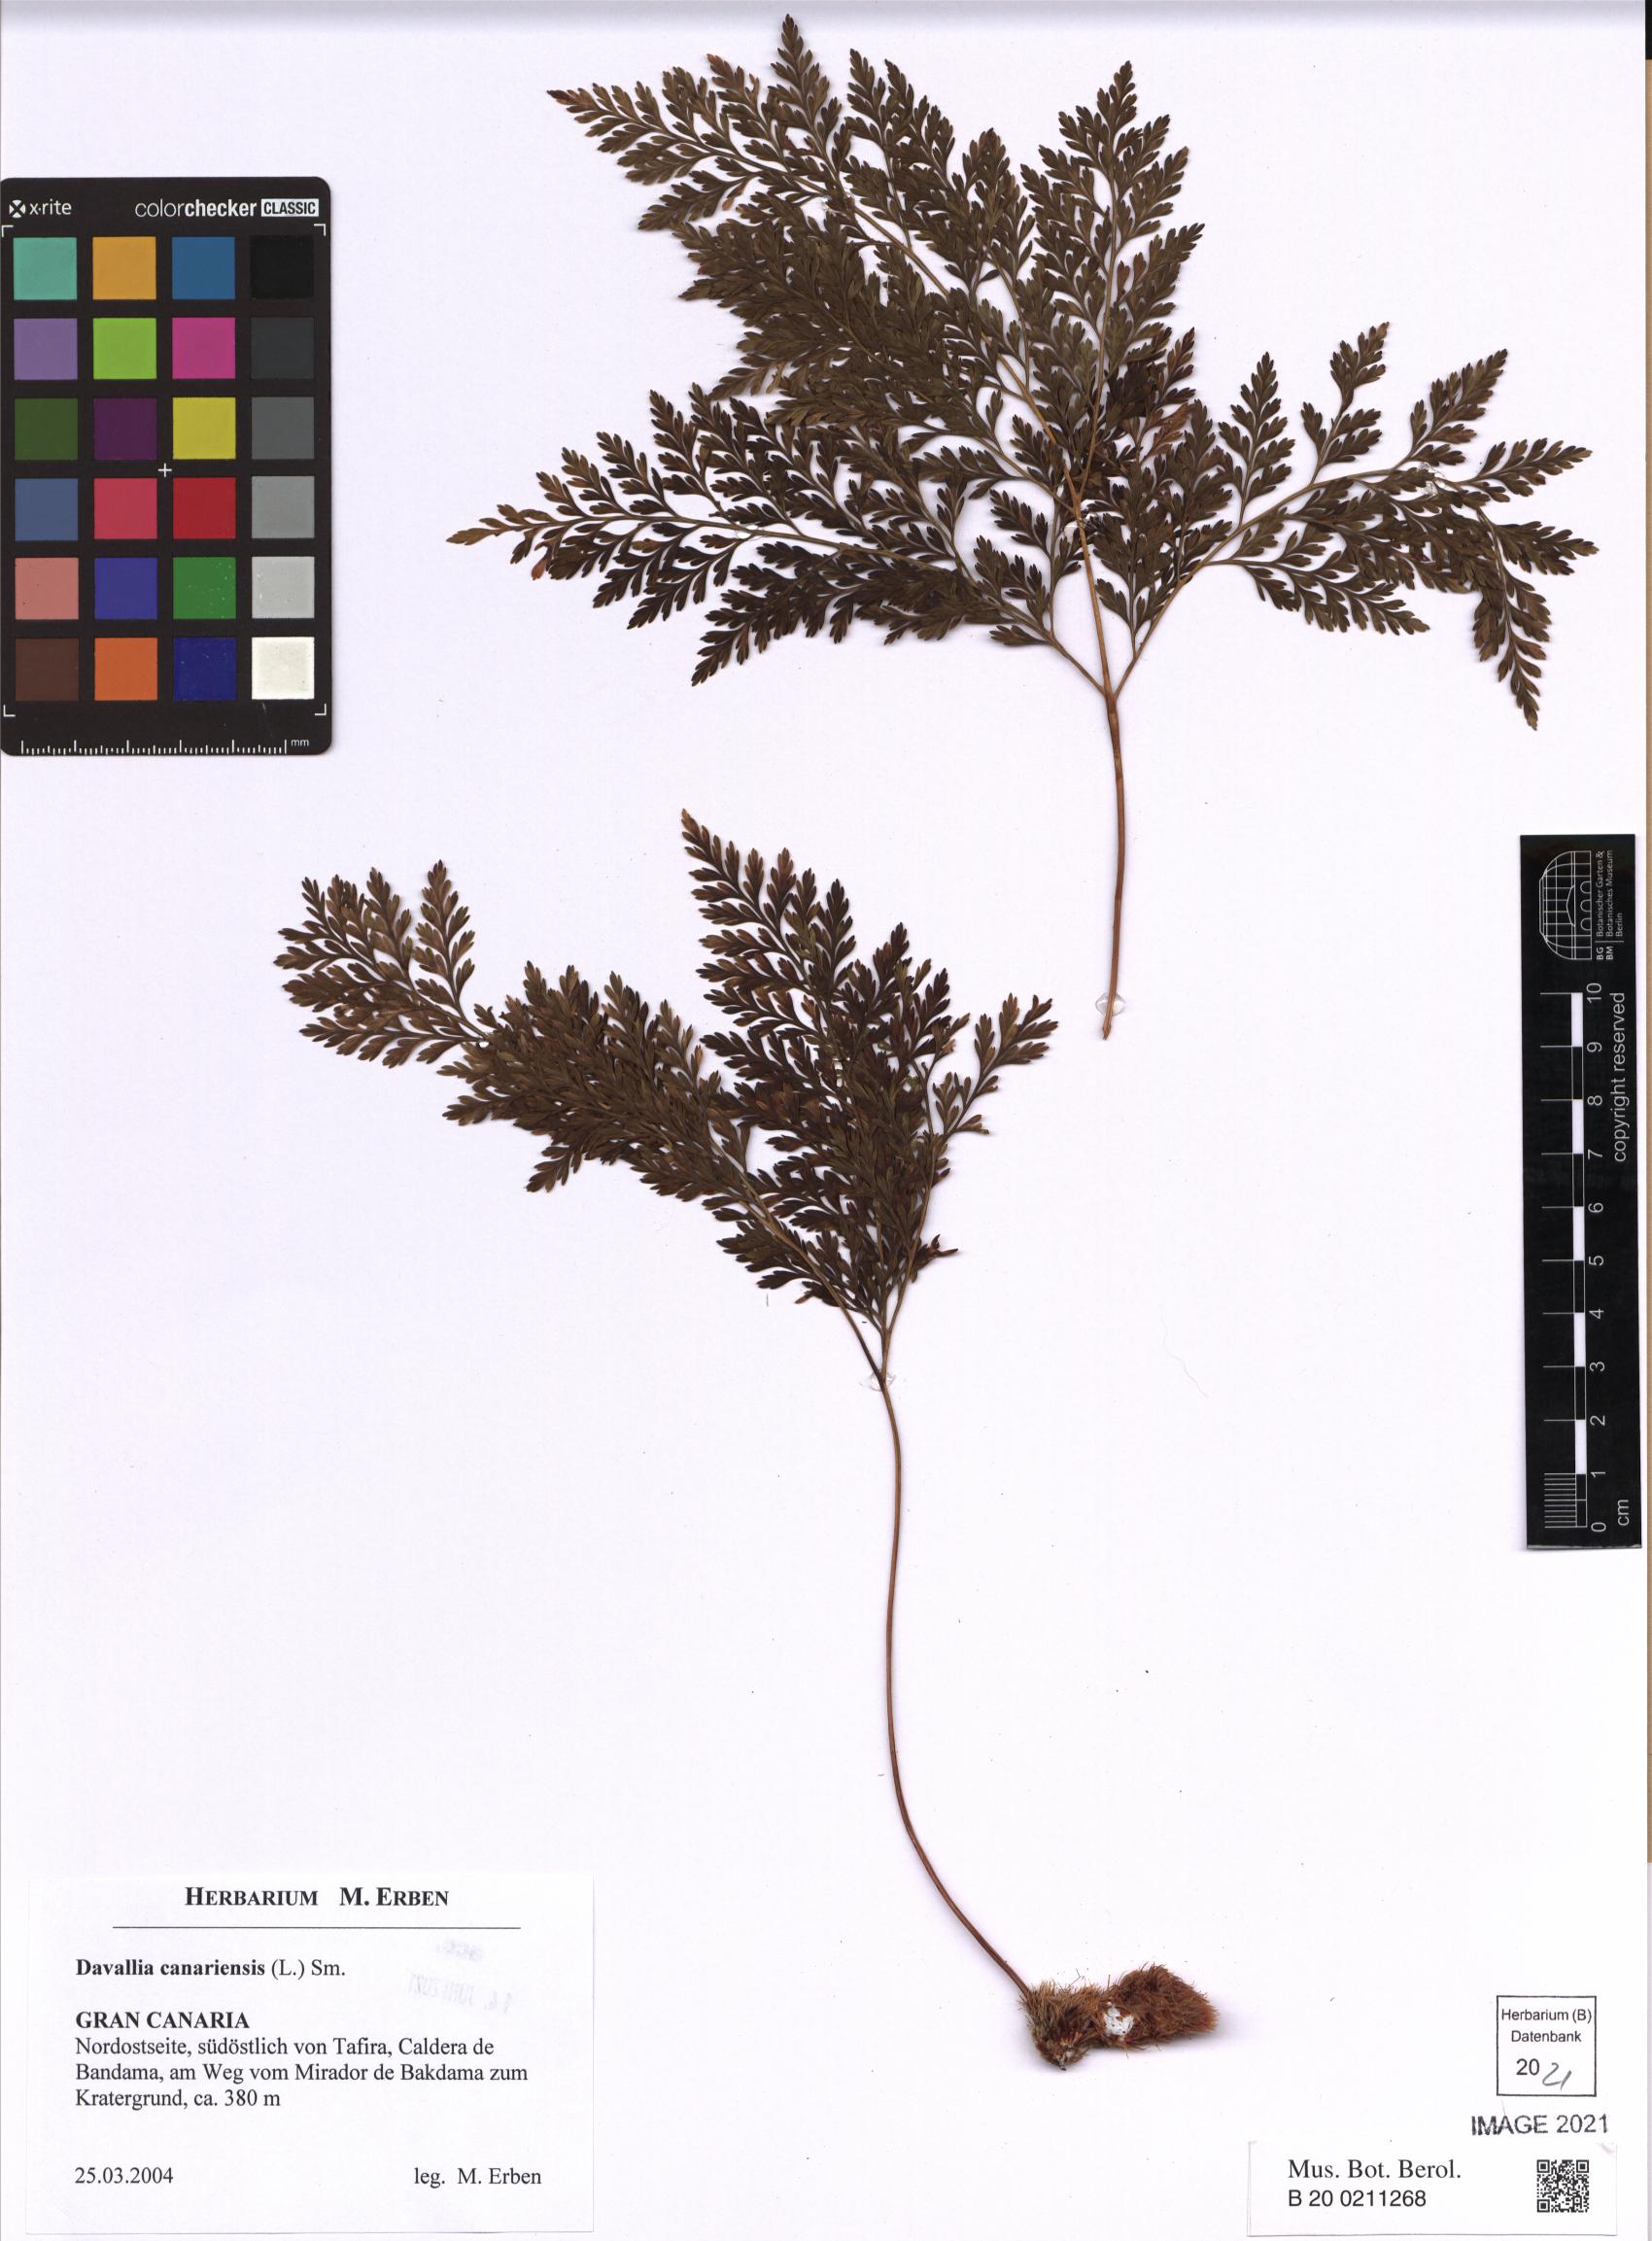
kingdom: Plantae
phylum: Tracheophyta
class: Polypodiopsida
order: Polypodiales
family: Davalliaceae
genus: Davallia
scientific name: Davallia canariensis
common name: Hare's-foot fern
